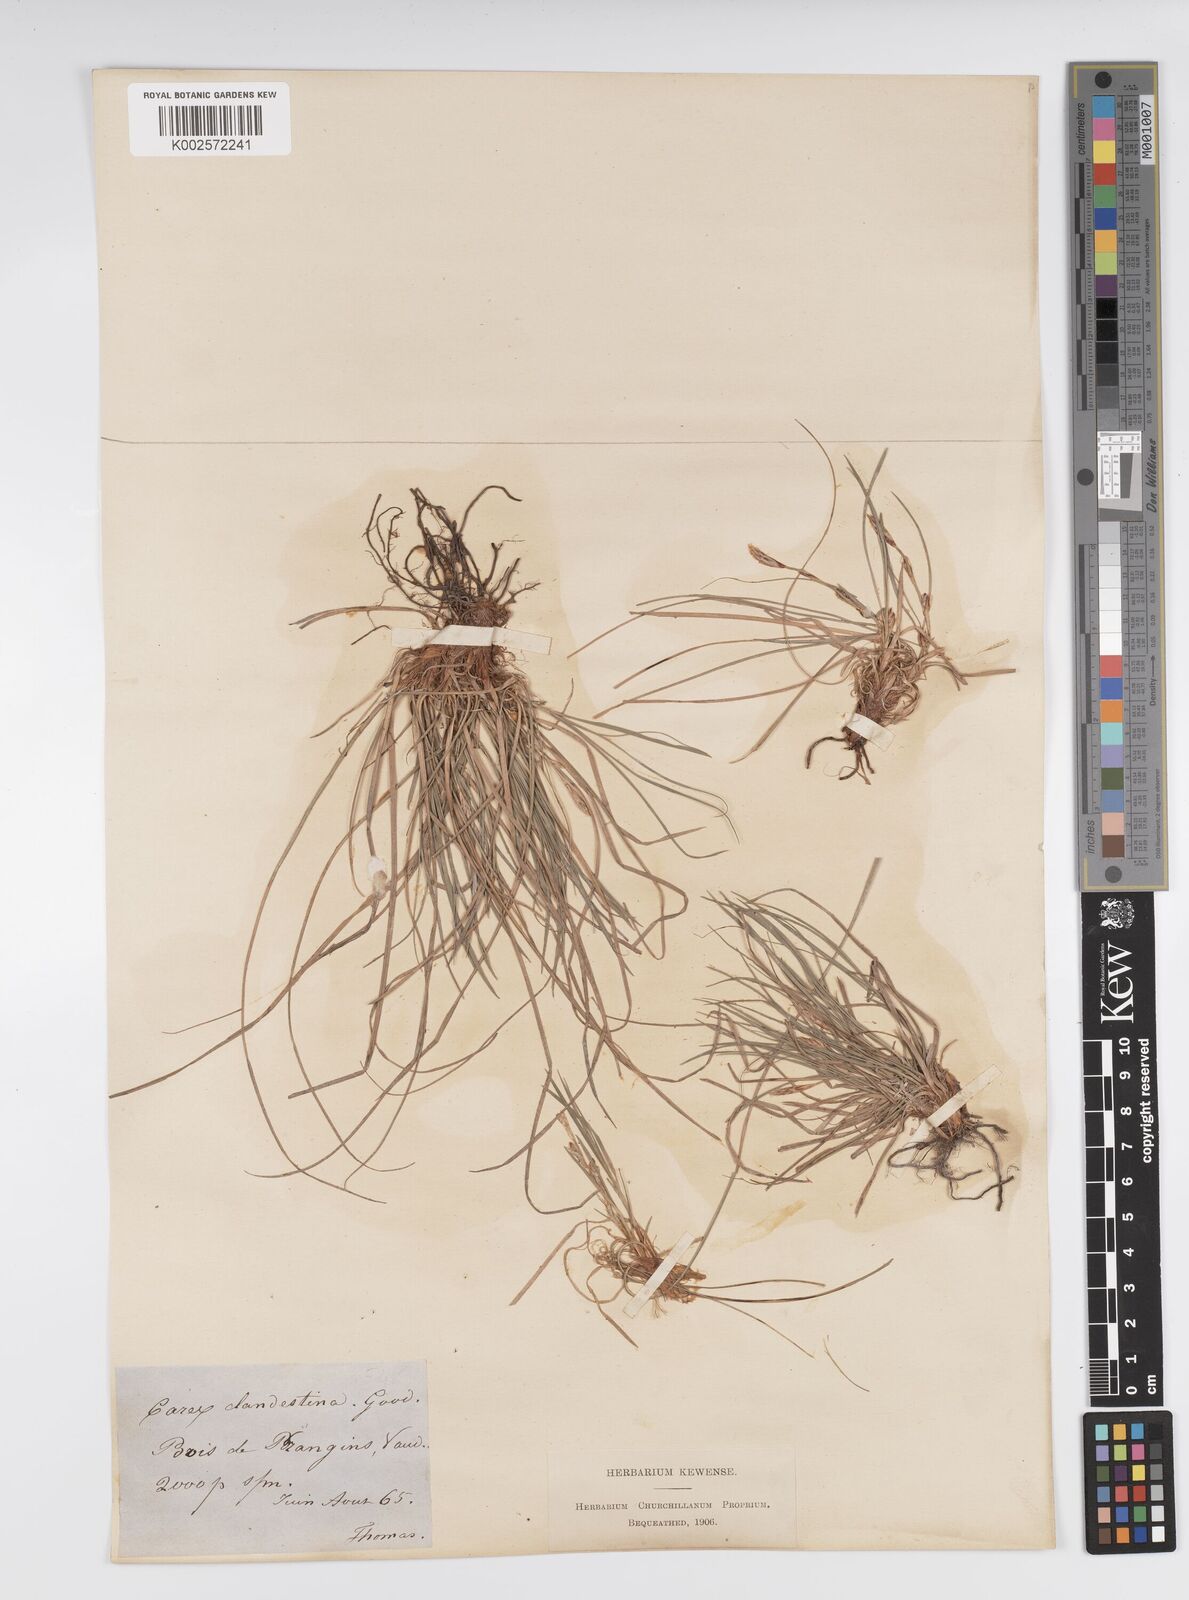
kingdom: Plantae
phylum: Tracheophyta
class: Liliopsida
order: Poales
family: Cyperaceae
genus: Carex
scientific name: Carex humilis
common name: Dwarf sedge
